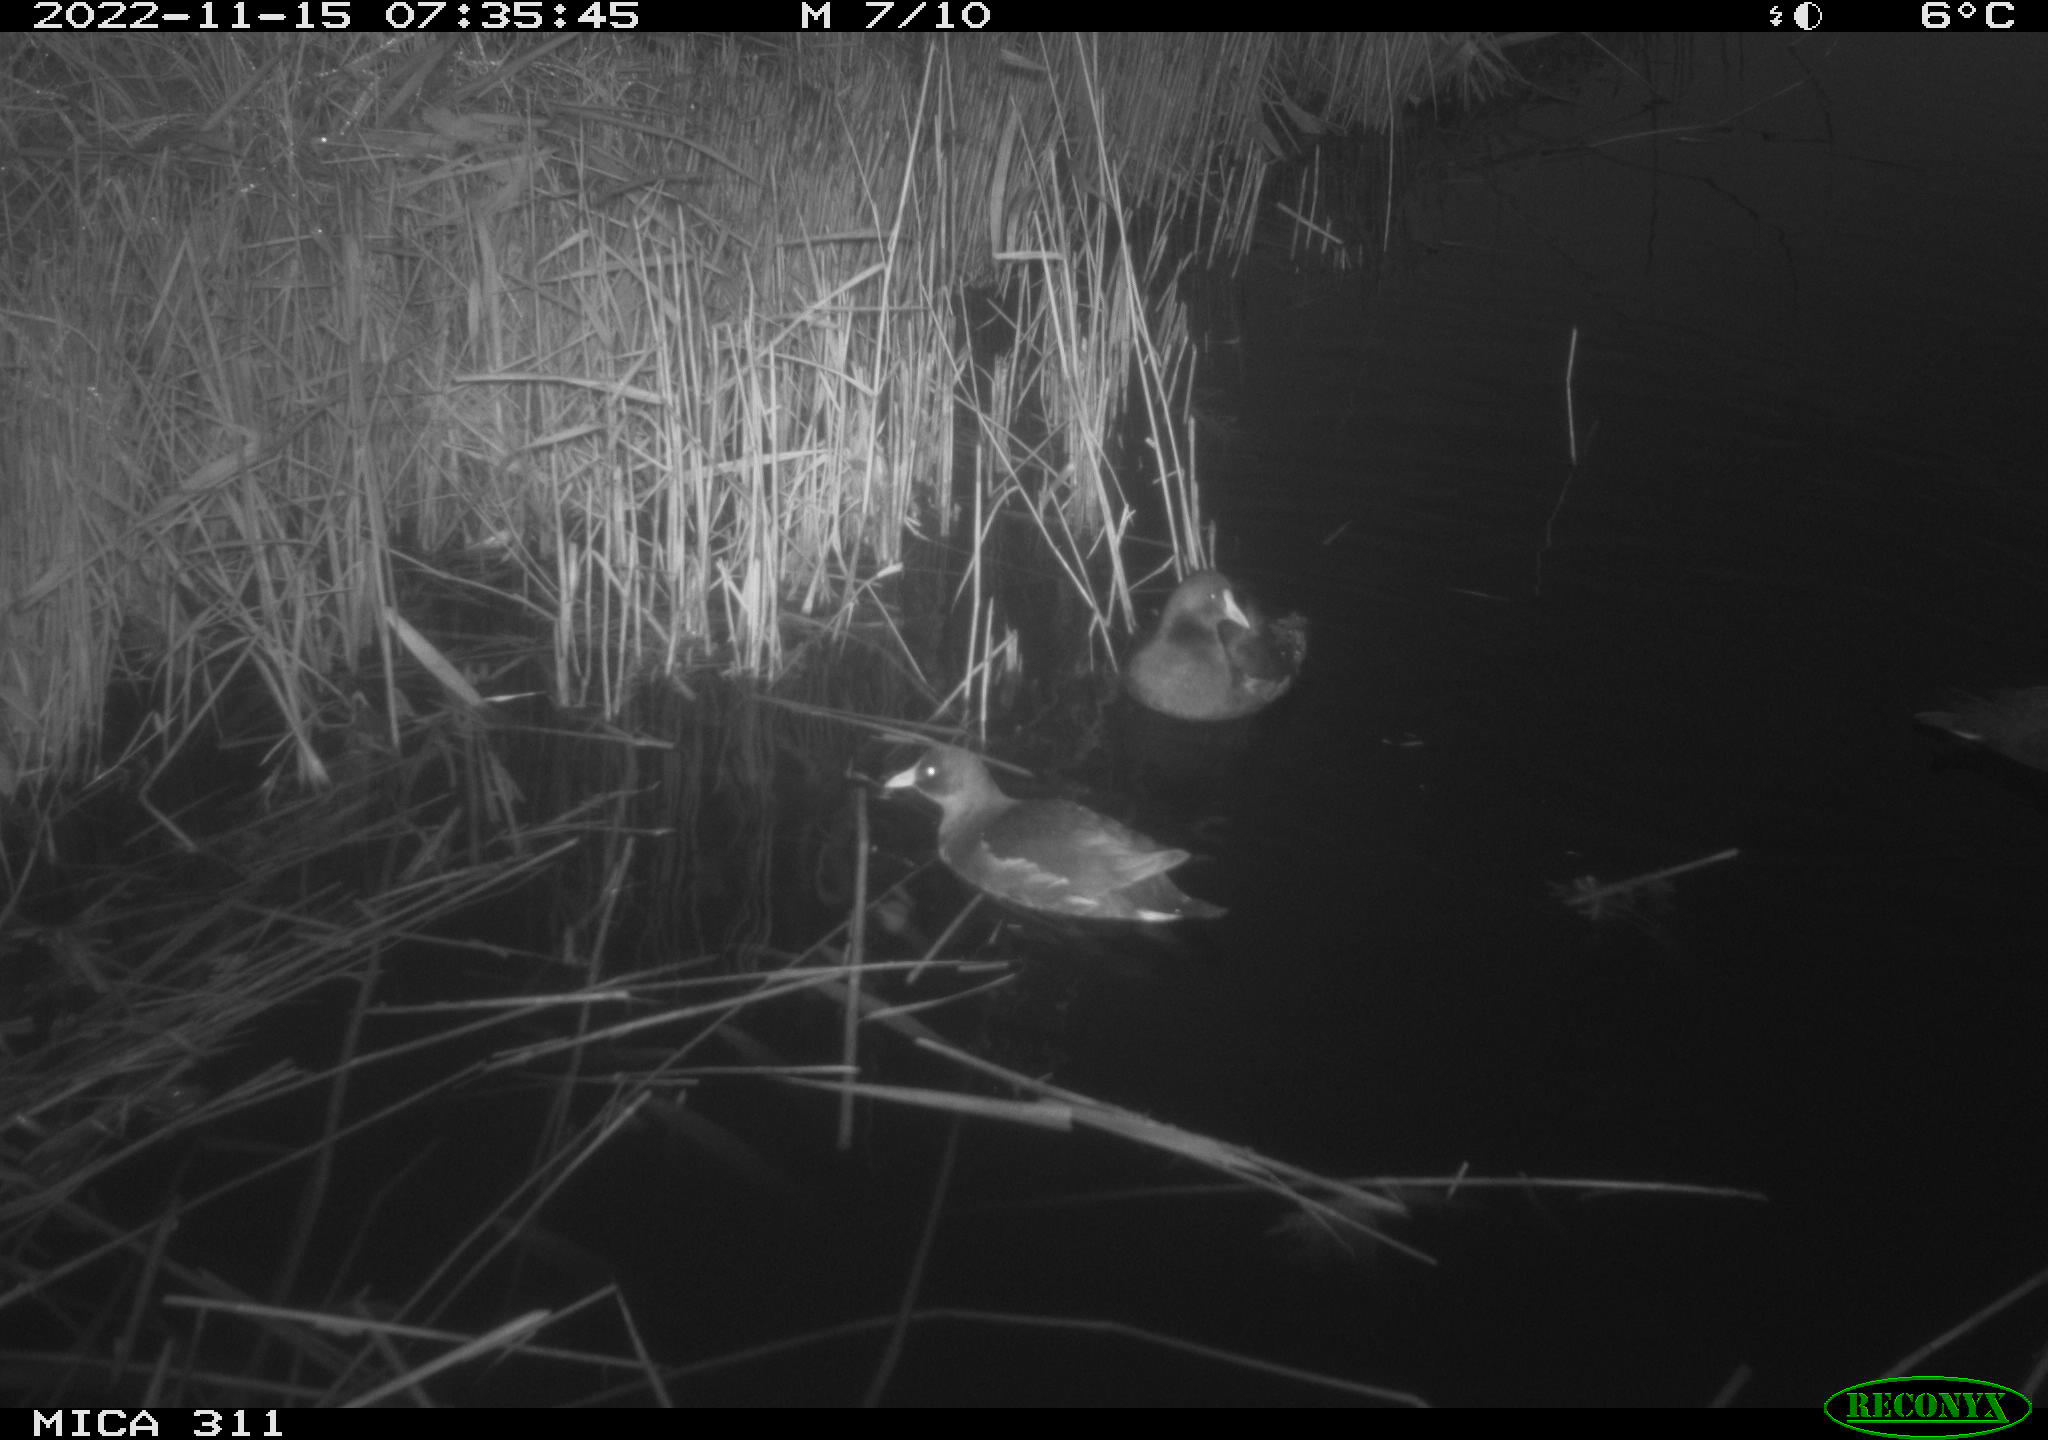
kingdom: Animalia
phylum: Chordata
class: Aves
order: Gruiformes
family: Rallidae
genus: Gallinula
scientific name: Gallinula chloropus
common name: Common moorhen
